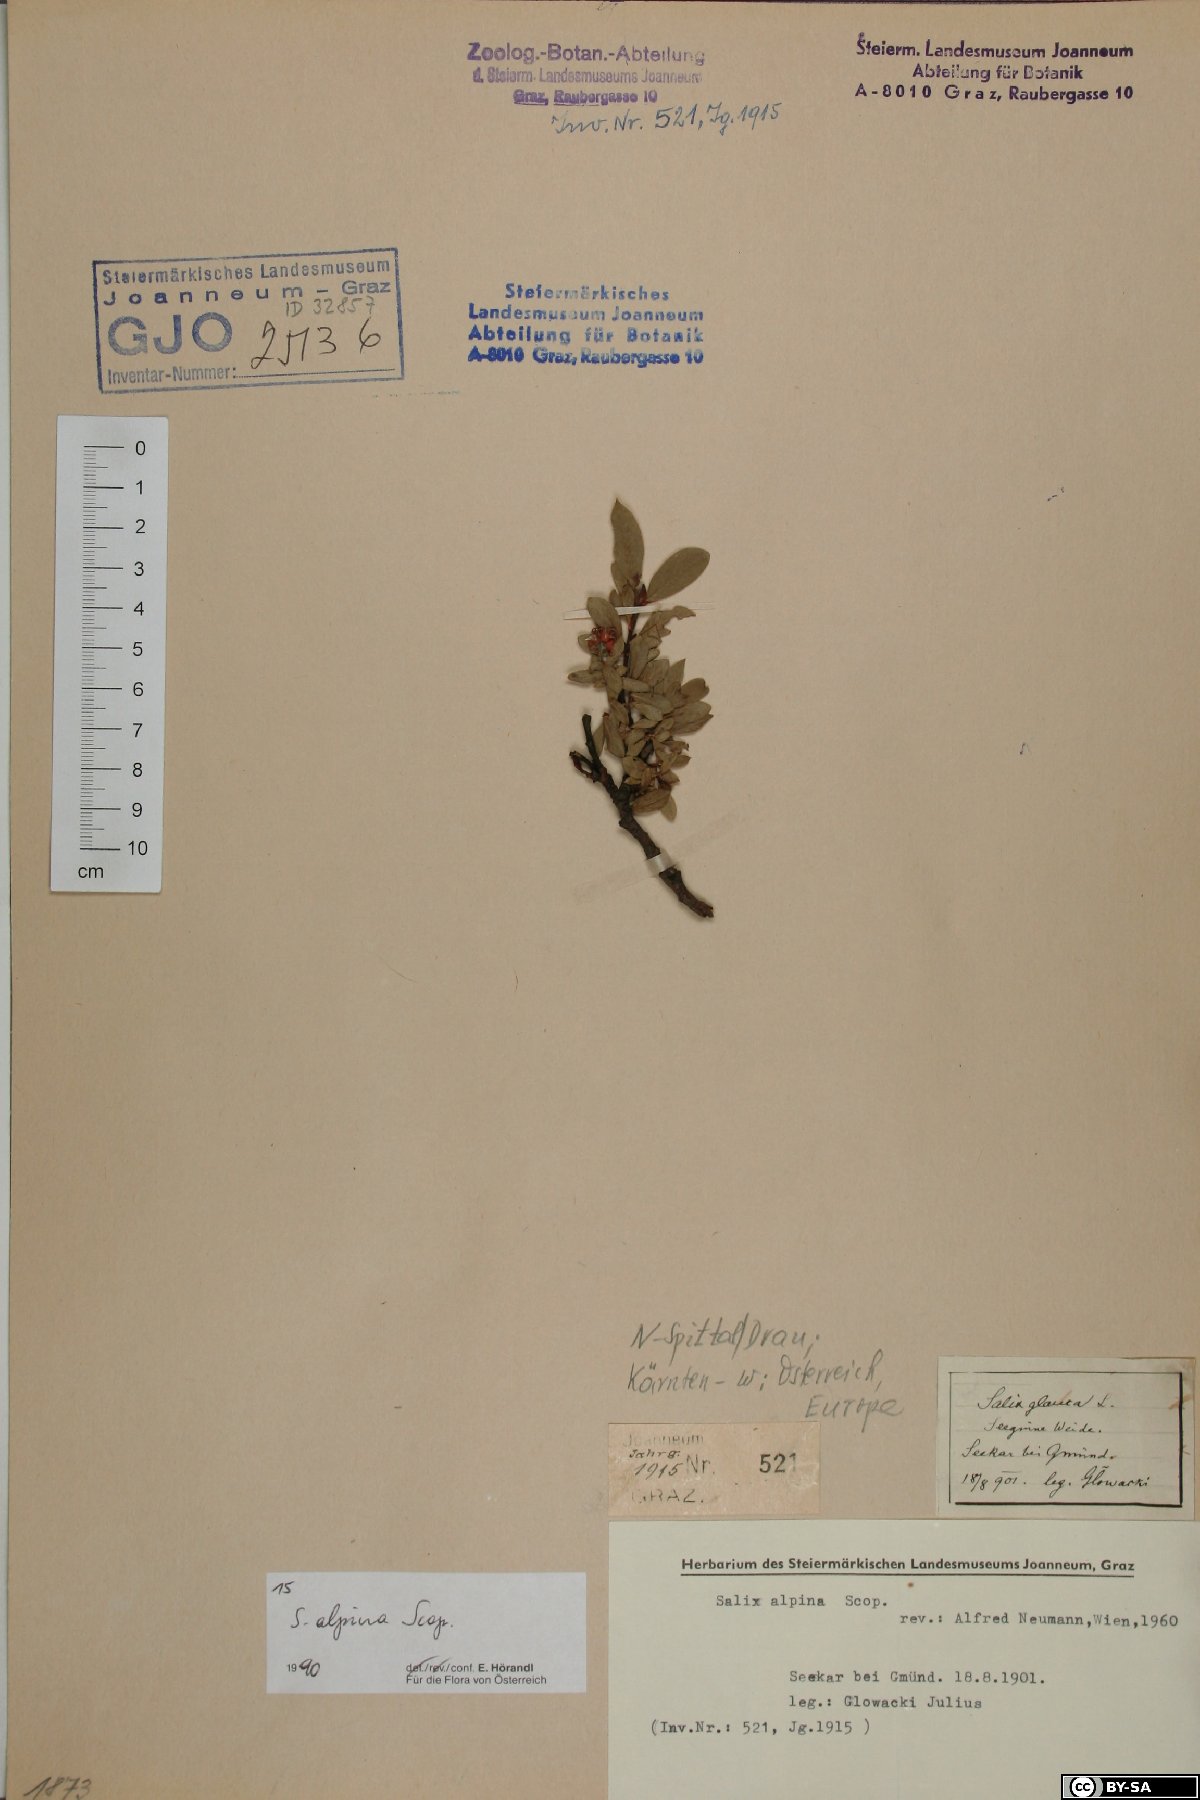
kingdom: Plantae
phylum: Tracheophyta
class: Magnoliopsida
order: Malpighiales
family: Salicaceae
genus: Salix
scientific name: Salix alpina
